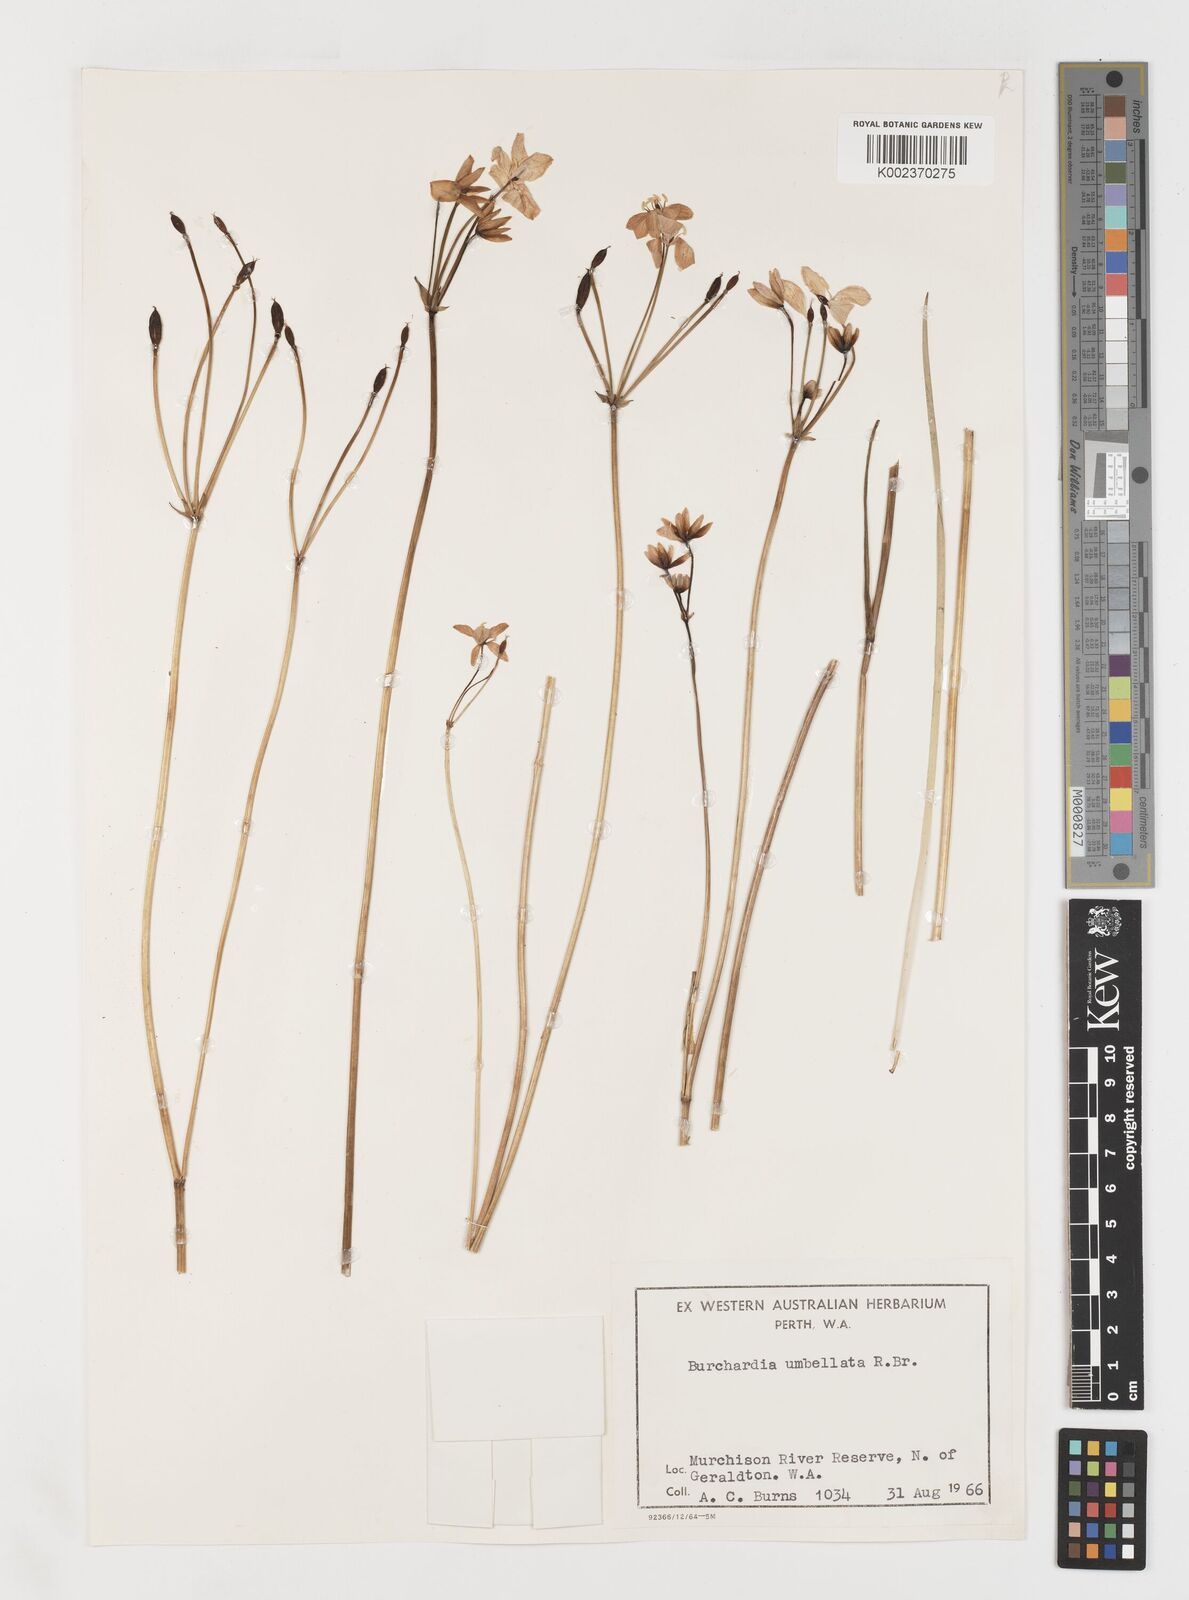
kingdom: Plantae
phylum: Tracheophyta
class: Liliopsida
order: Liliales
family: Colchicaceae
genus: Burchardia
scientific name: Burchardia umbellata
